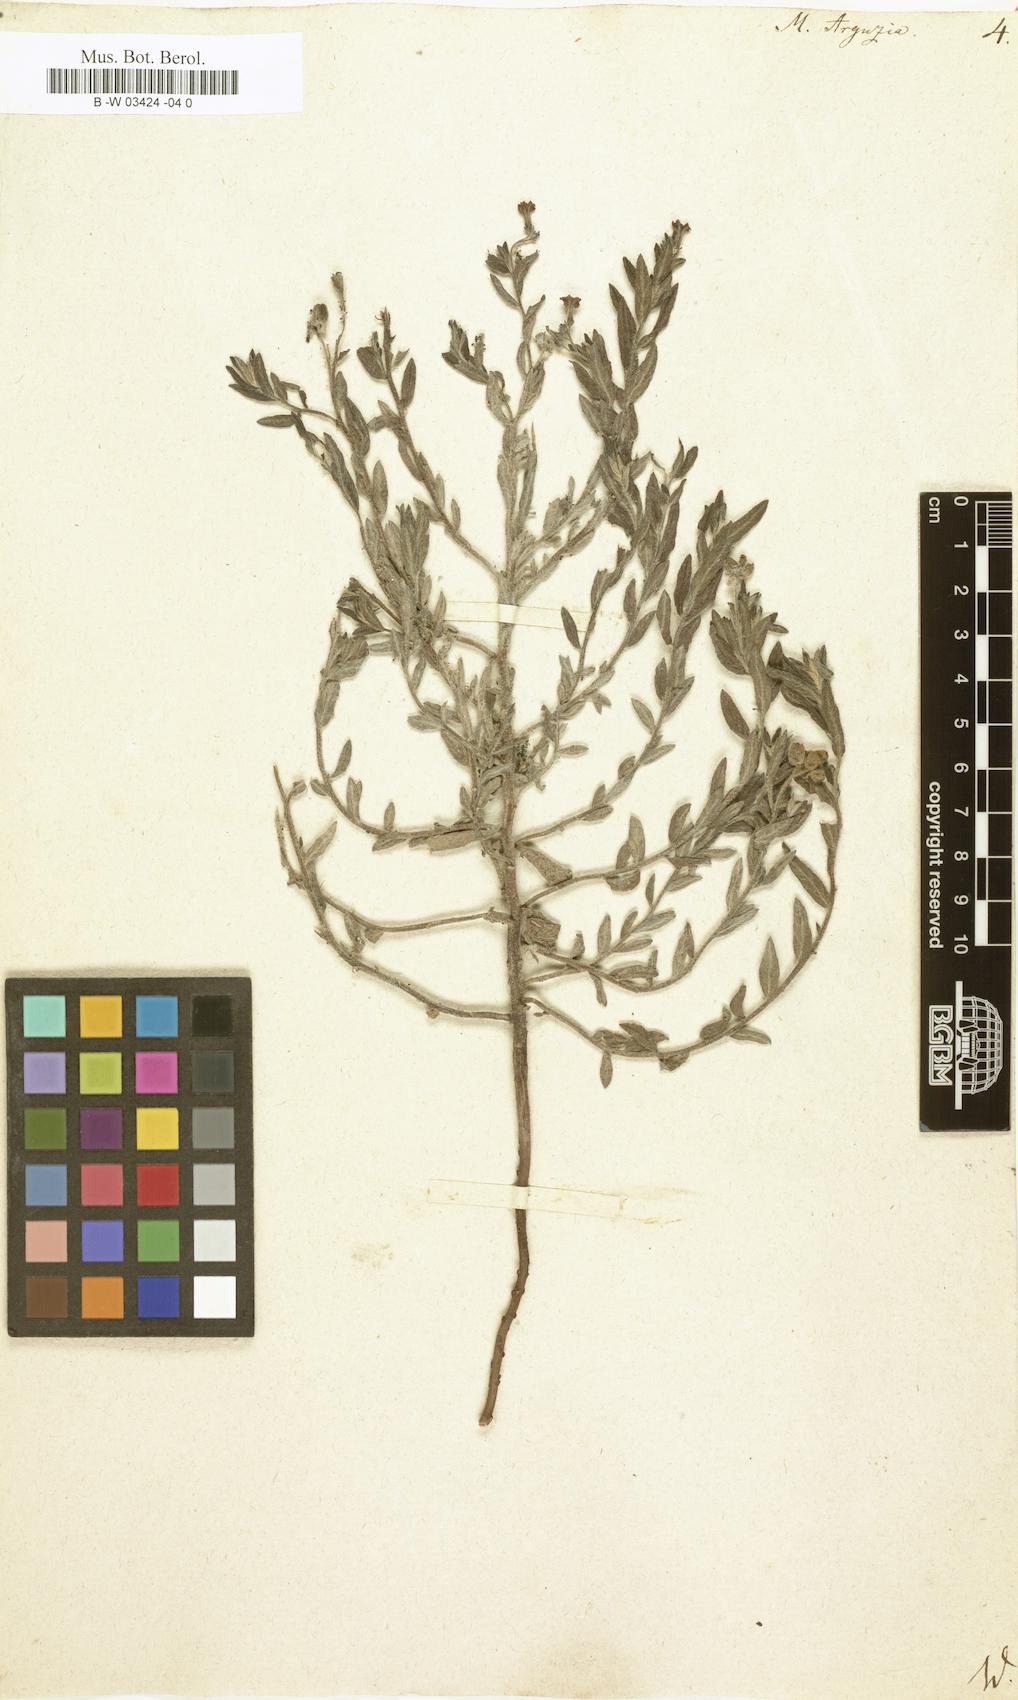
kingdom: Plantae
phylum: Tracheophyta
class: Magnoliopsida
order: Boraginales
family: Heliotropiaceae
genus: Tournefortia
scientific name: Tournefortia sibirica
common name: Siberian sea rosemary
